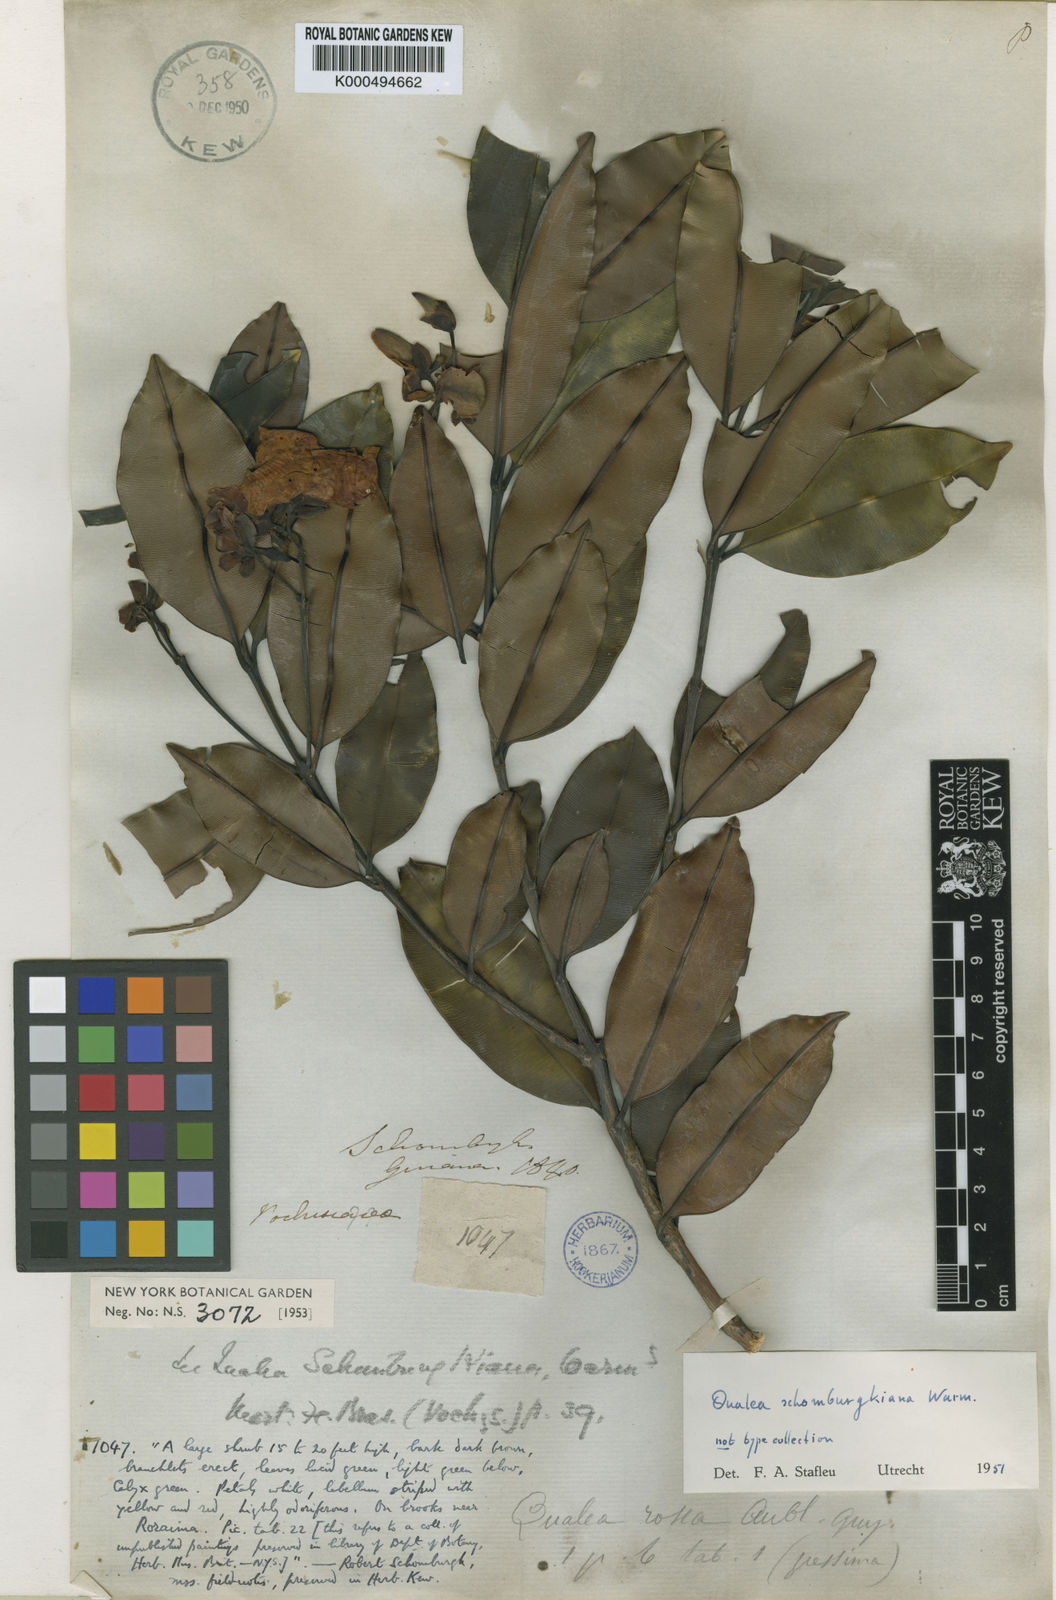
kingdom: Plantae
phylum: Tracheophyta
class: Magnoliopsida
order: Myrtales
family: Vochysiaceae
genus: Qualea
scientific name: Qualea schomburgkiana
